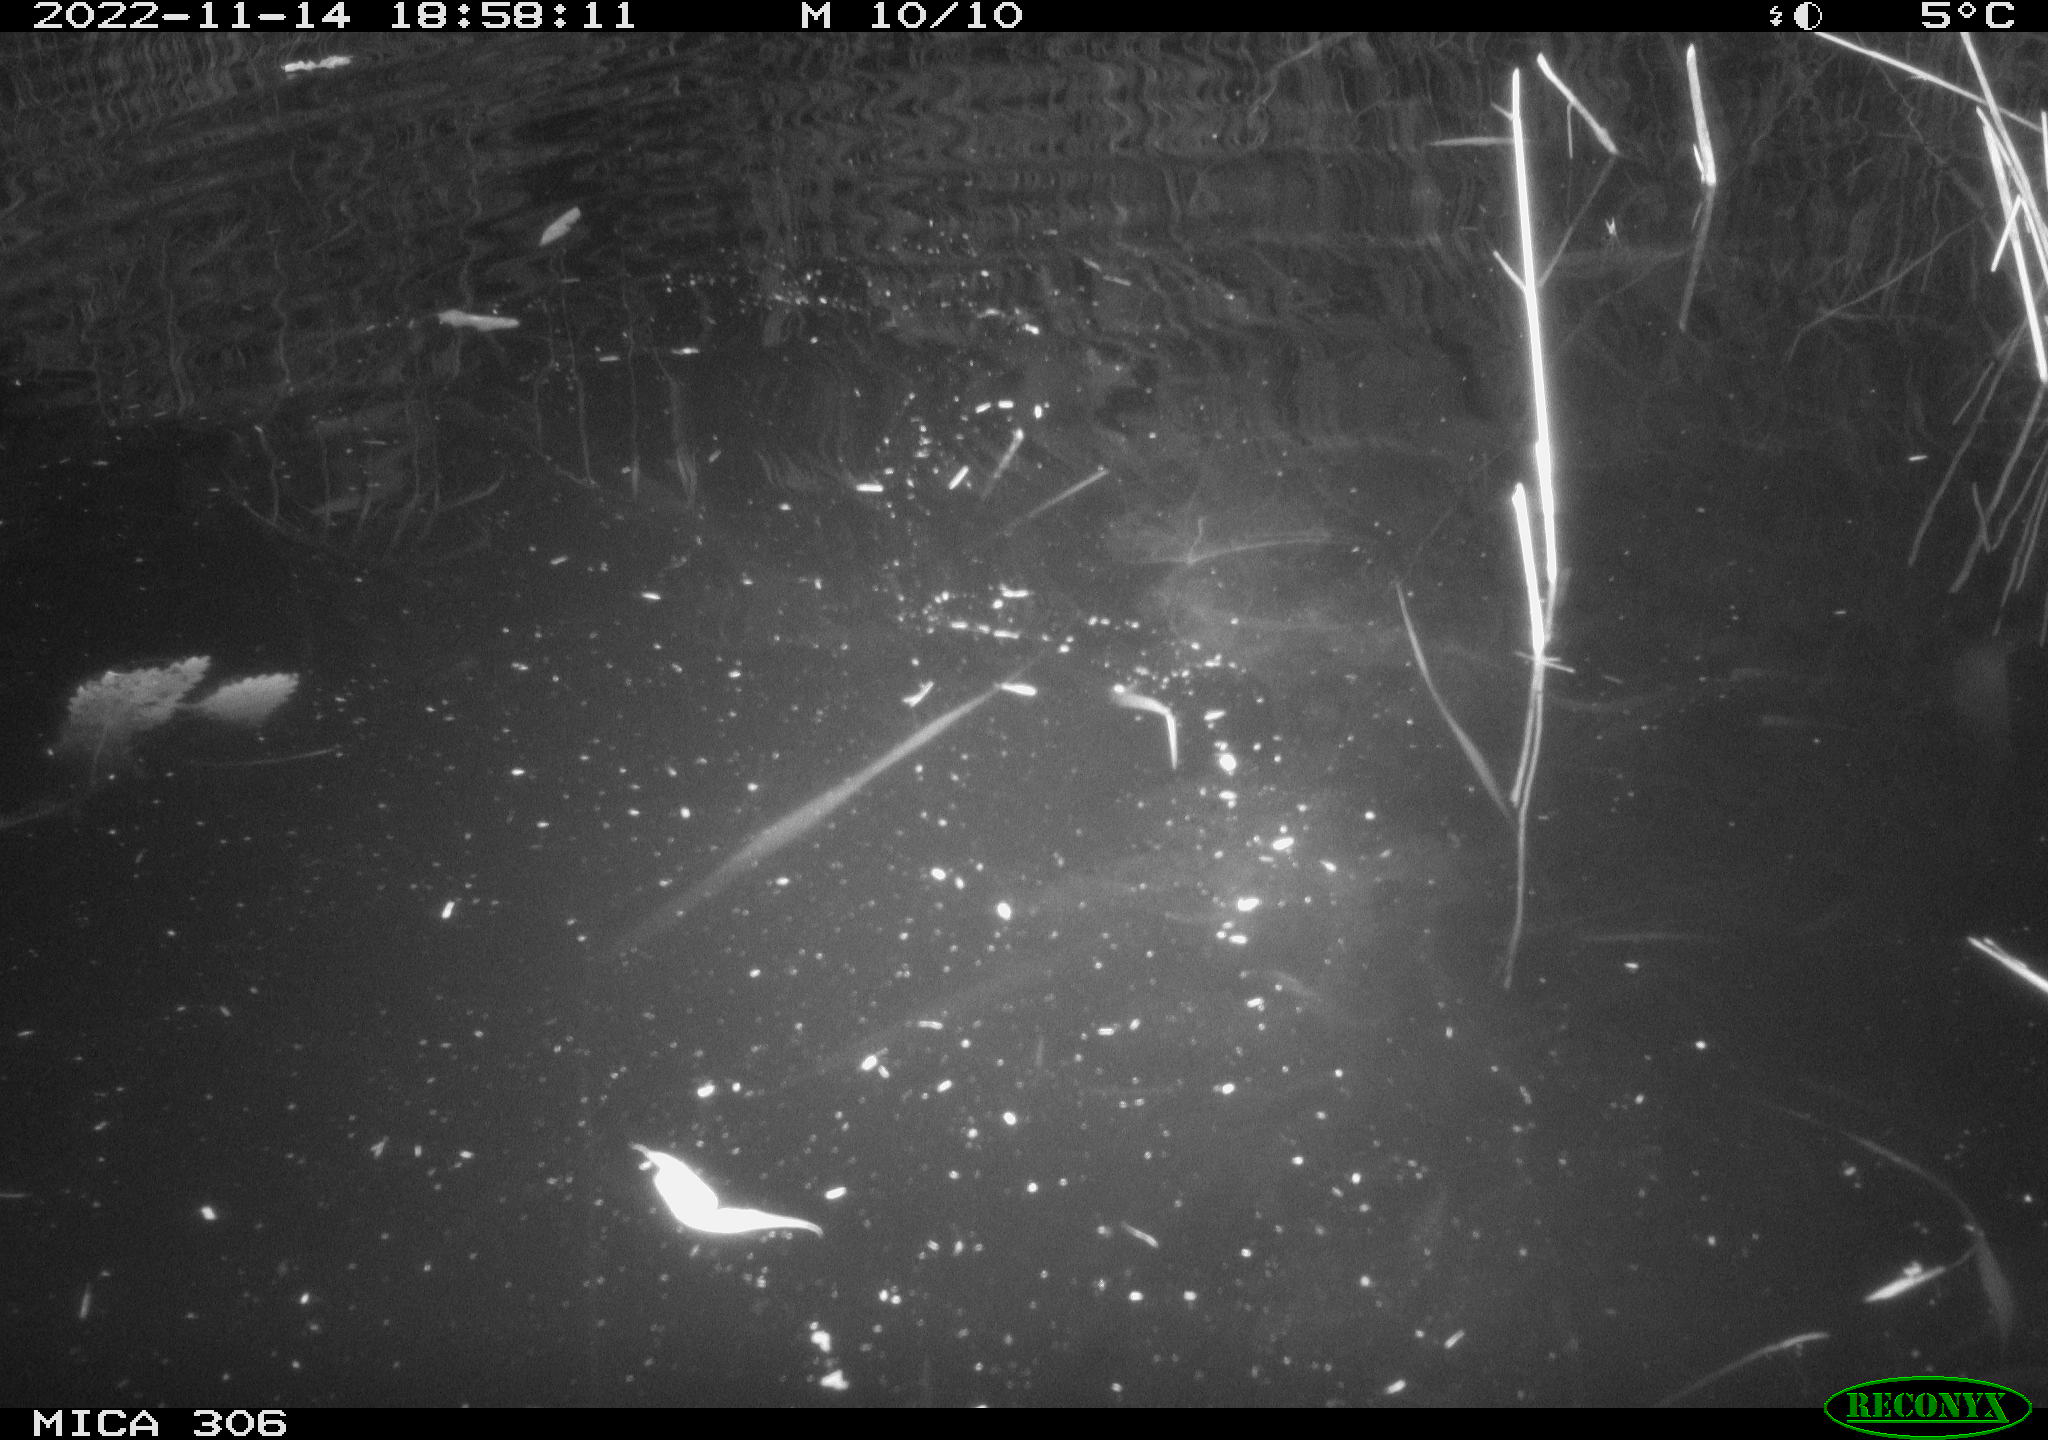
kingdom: Animalia
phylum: Chordata
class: Mammalia
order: Rodentia
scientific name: Rodentia
